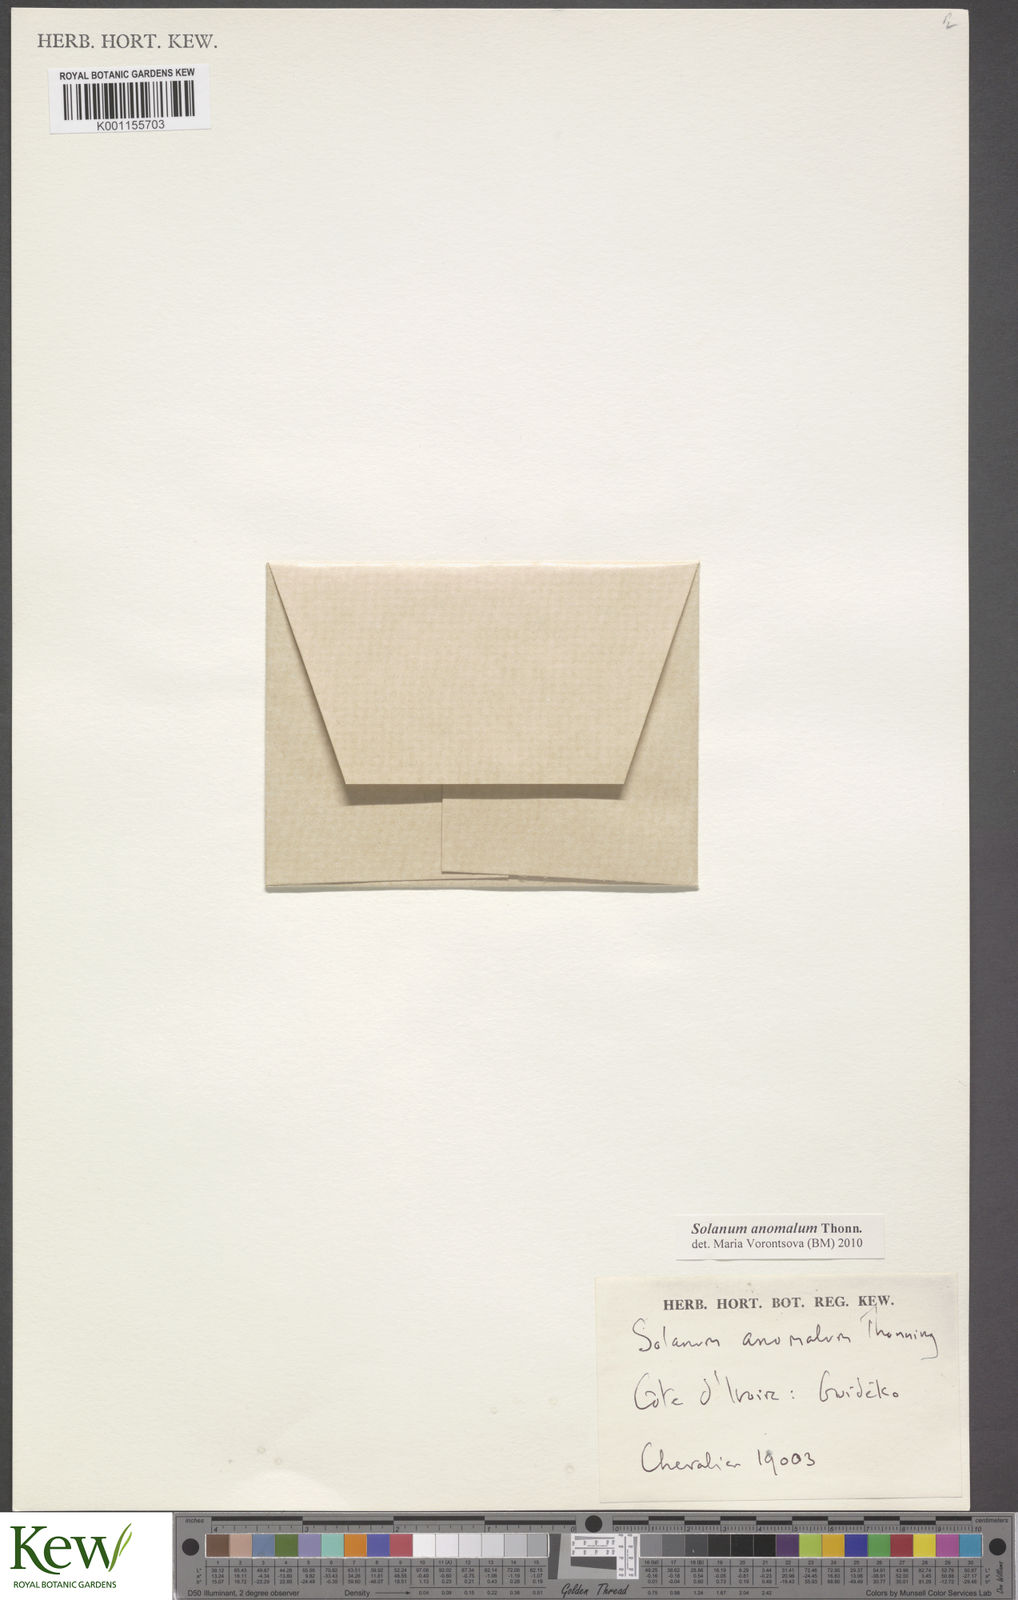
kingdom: Plantae
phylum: Tracheophyta
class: Magnoliopsida
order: Solanales
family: Solanaceae
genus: Solanum
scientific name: Solanum anomalum
